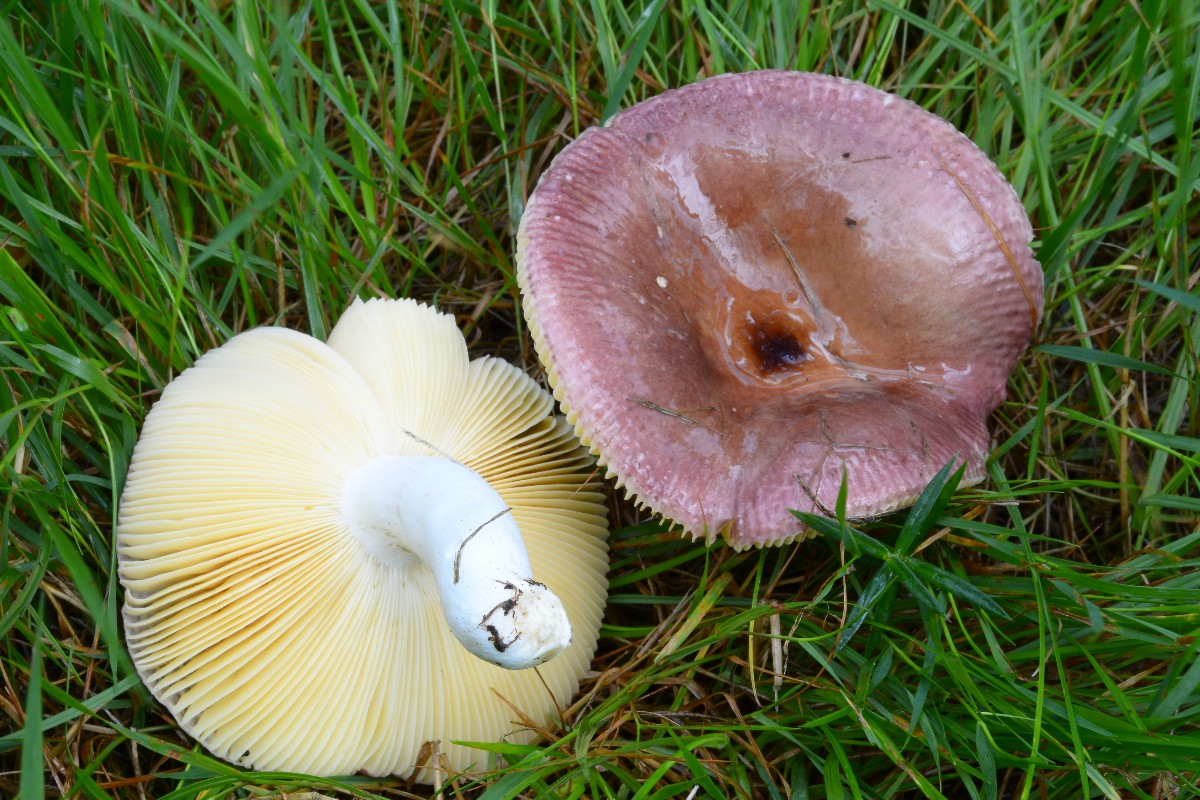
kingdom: Fungi
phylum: Basidiomycota
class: Agaricomycetes
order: Russulales
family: Russulaceae
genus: Russula
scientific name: Russula caerulea
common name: puklet skørhat
